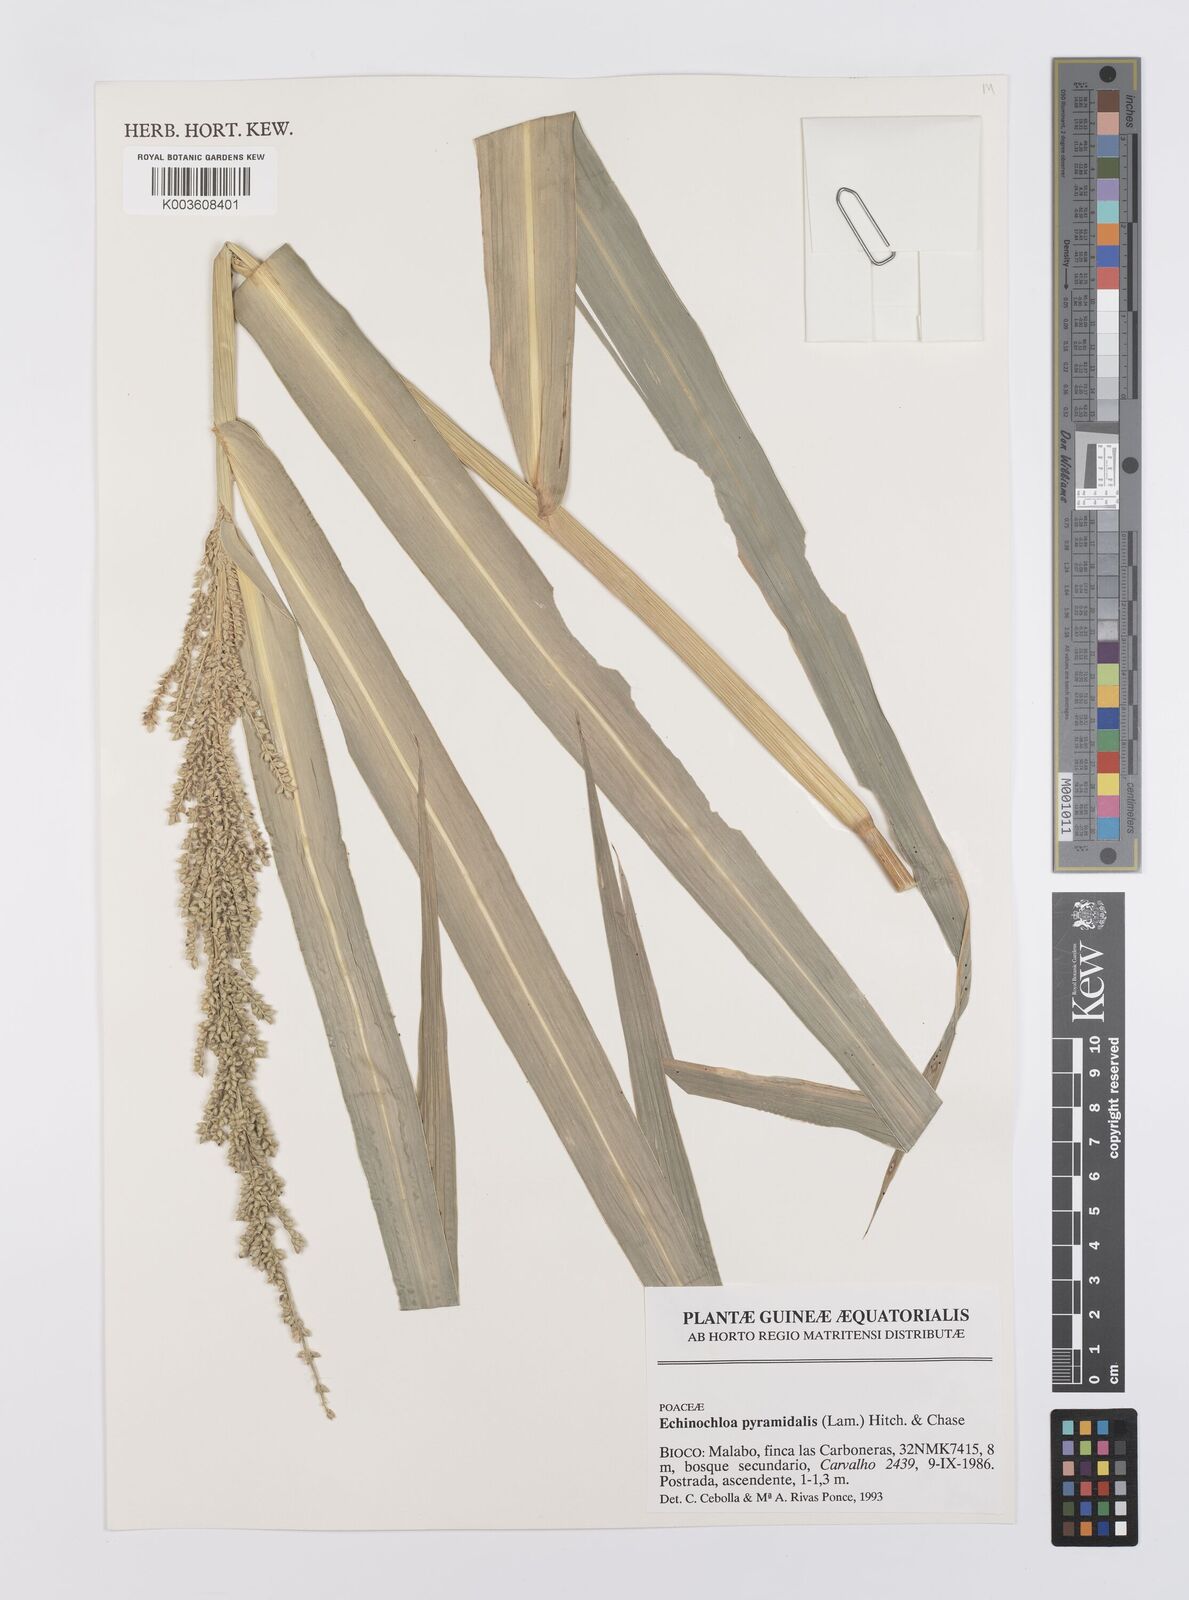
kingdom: Plantae
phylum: Tracheophyta
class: Liliopsida
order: Poales
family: Poaceae
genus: Echinochloa
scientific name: Echinochloa pyramidalis
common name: Antelope grass
